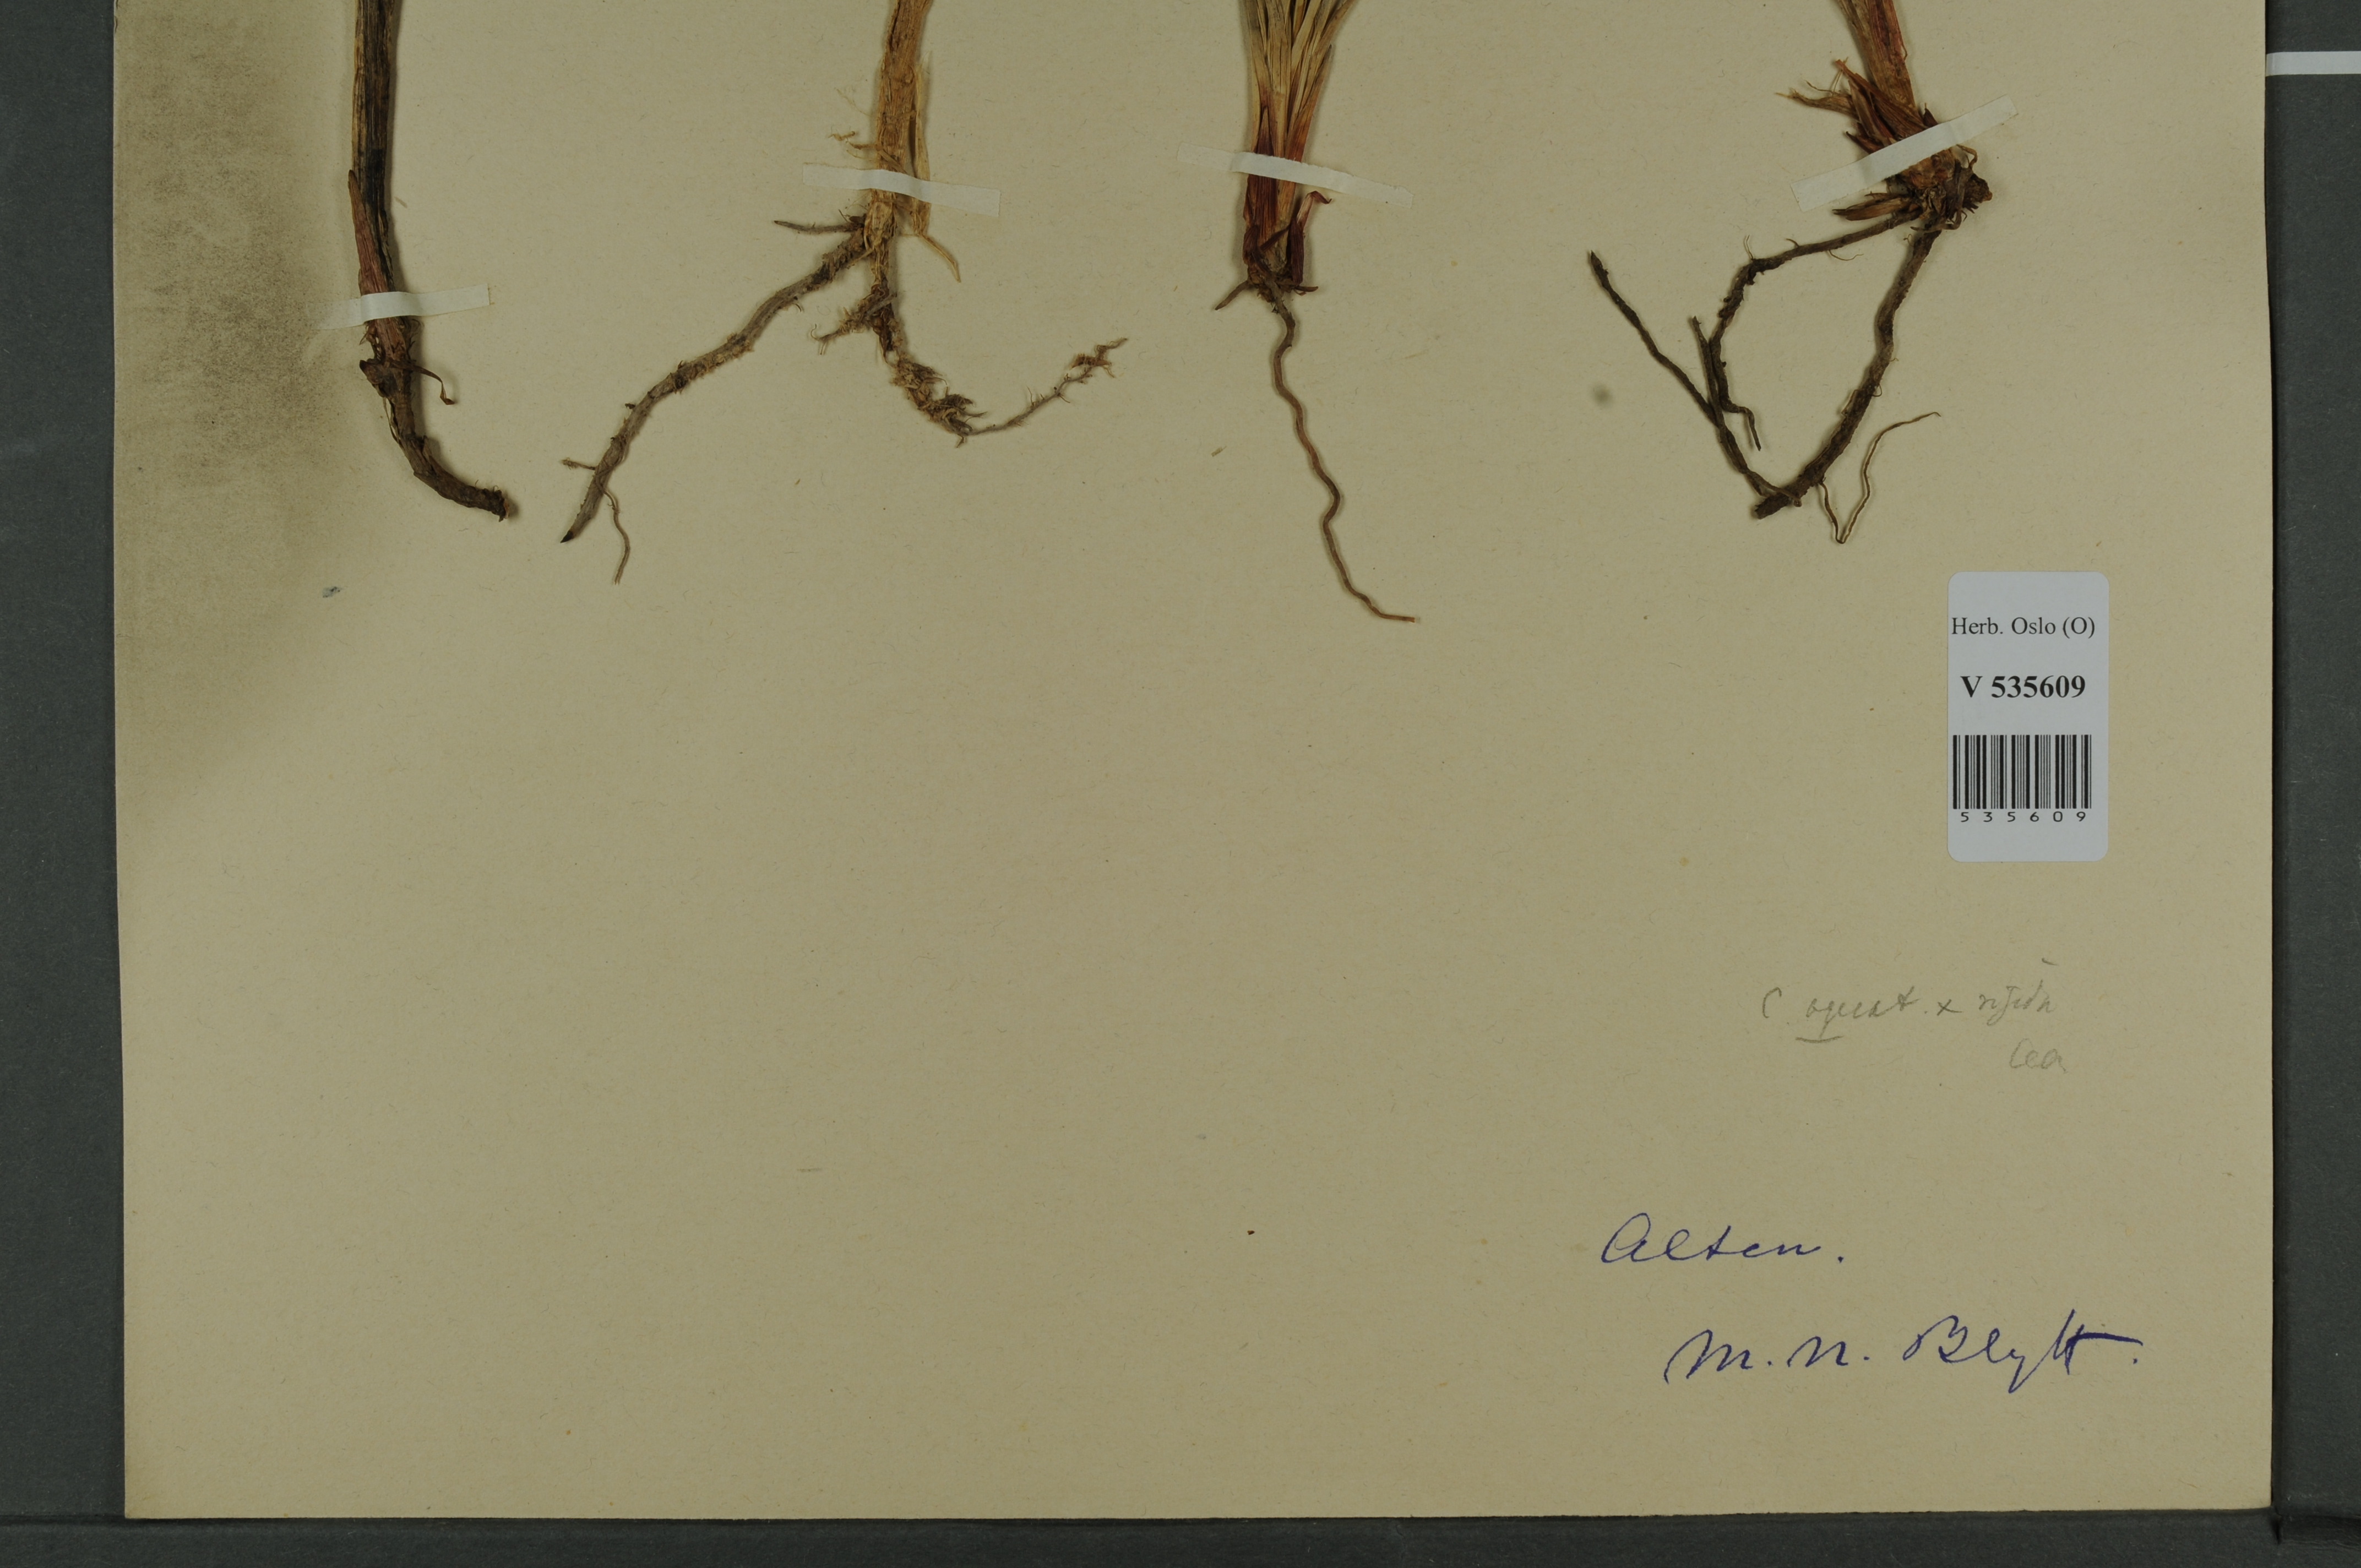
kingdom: Plantae
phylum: Tracheophyta
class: Liliopsida
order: Poales
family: Cyperaceae
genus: Carex
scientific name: Carex
